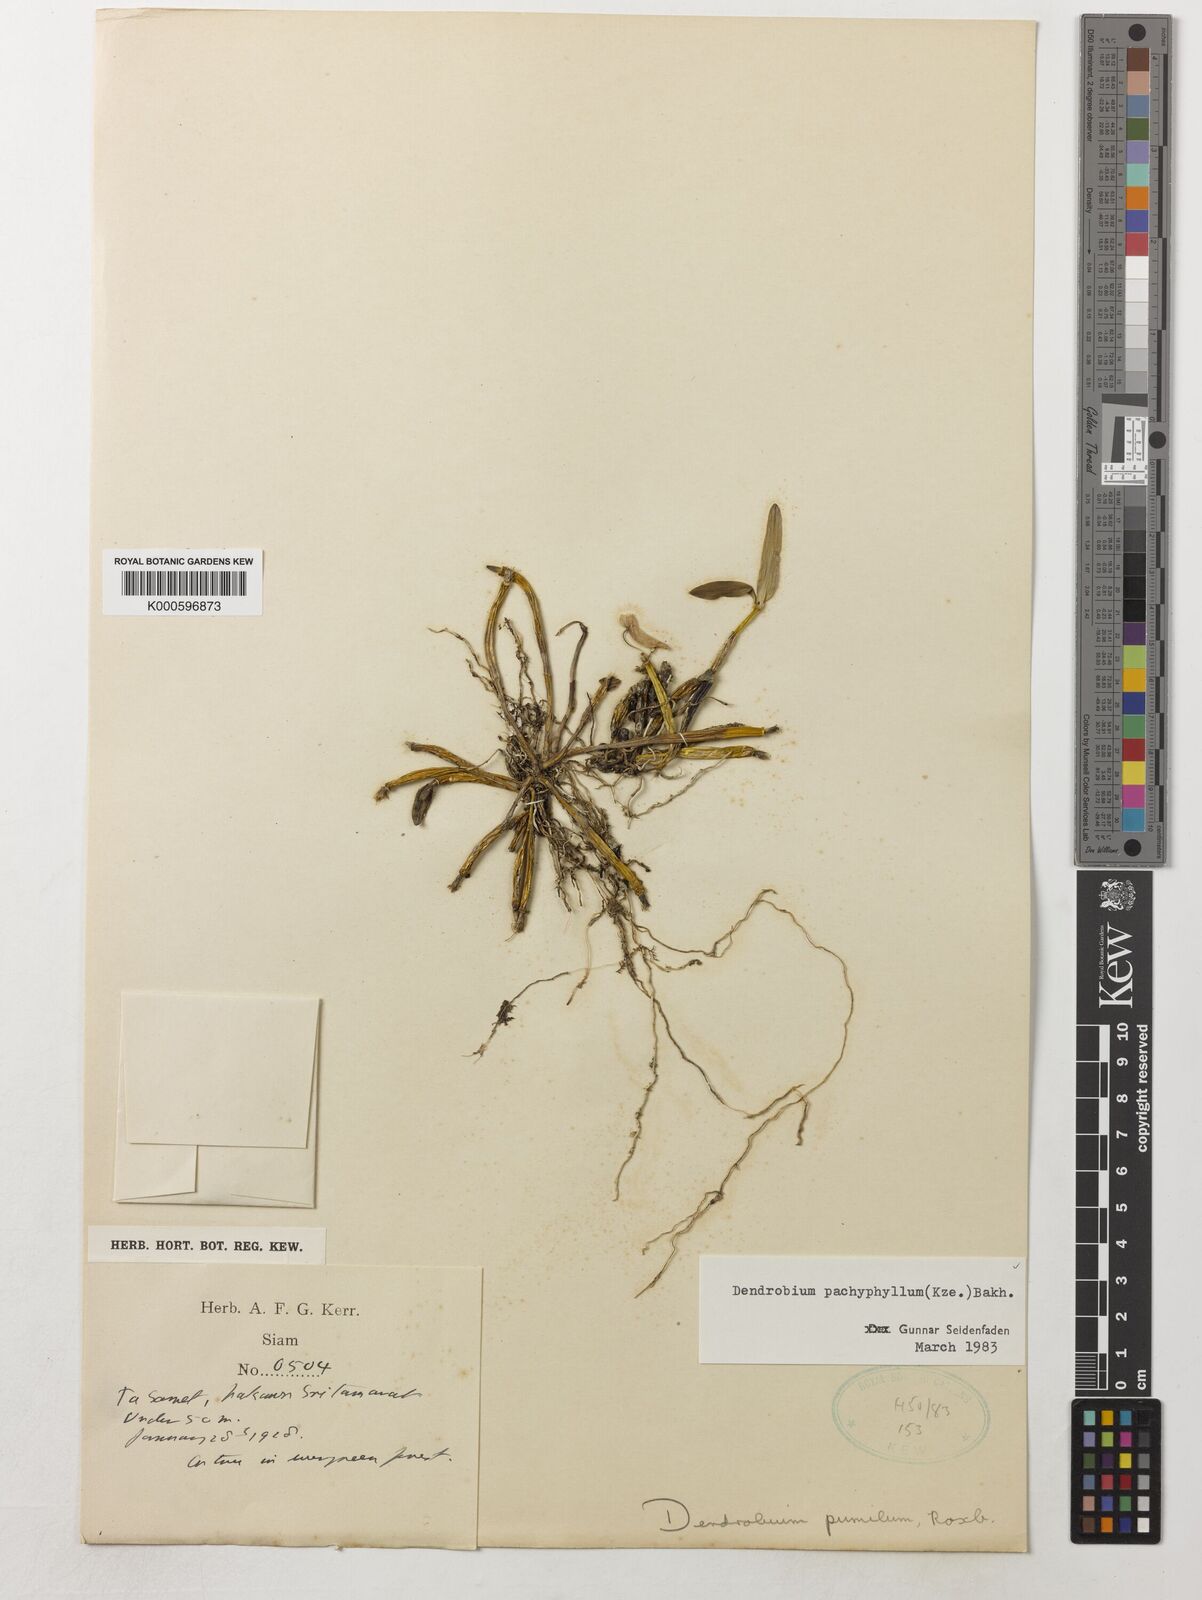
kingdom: Plantae
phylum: Tracheophyta
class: Liliopsida
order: Asparagales
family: Orchidaceae
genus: Dendrobium
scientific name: Dendrobium pachyphyllum
